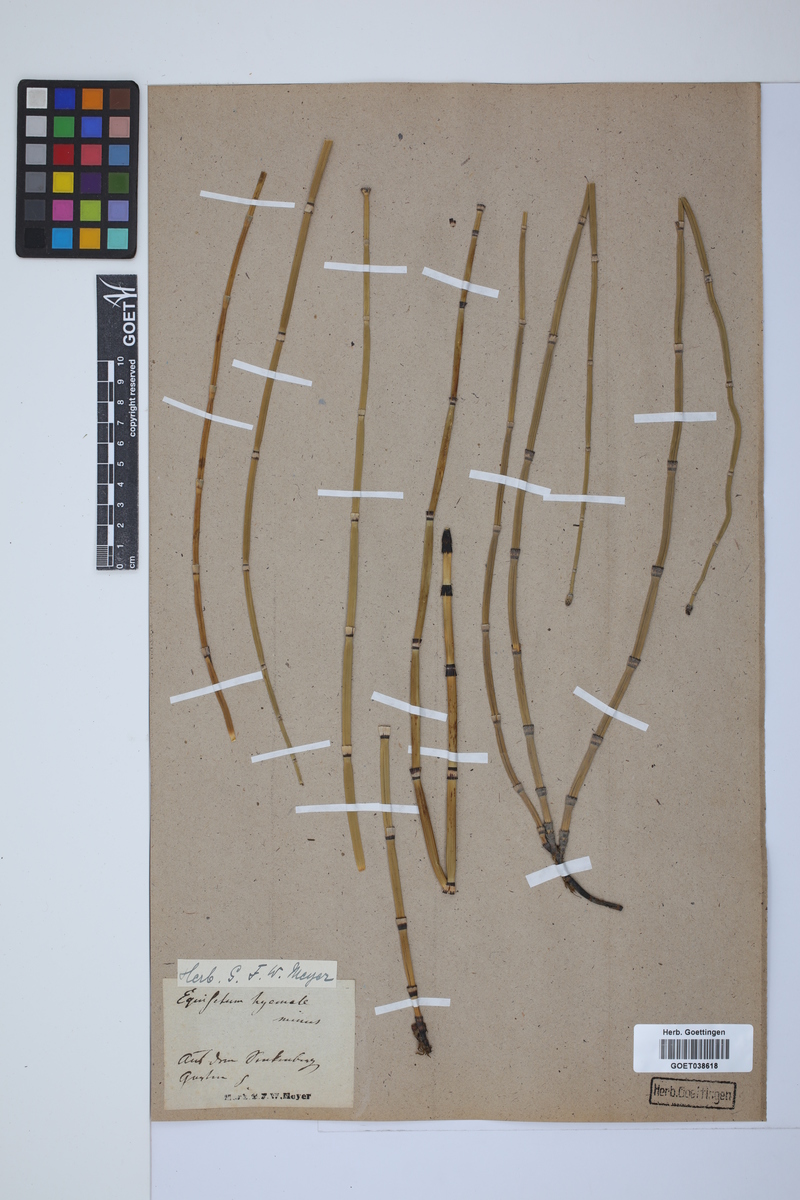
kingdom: Plantae
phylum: Tracheophyta
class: Polypodiopsida
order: Equisetales
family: Equisetaceae
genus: Equisetum
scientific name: Equisetum hyemale
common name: Rough horsetail
